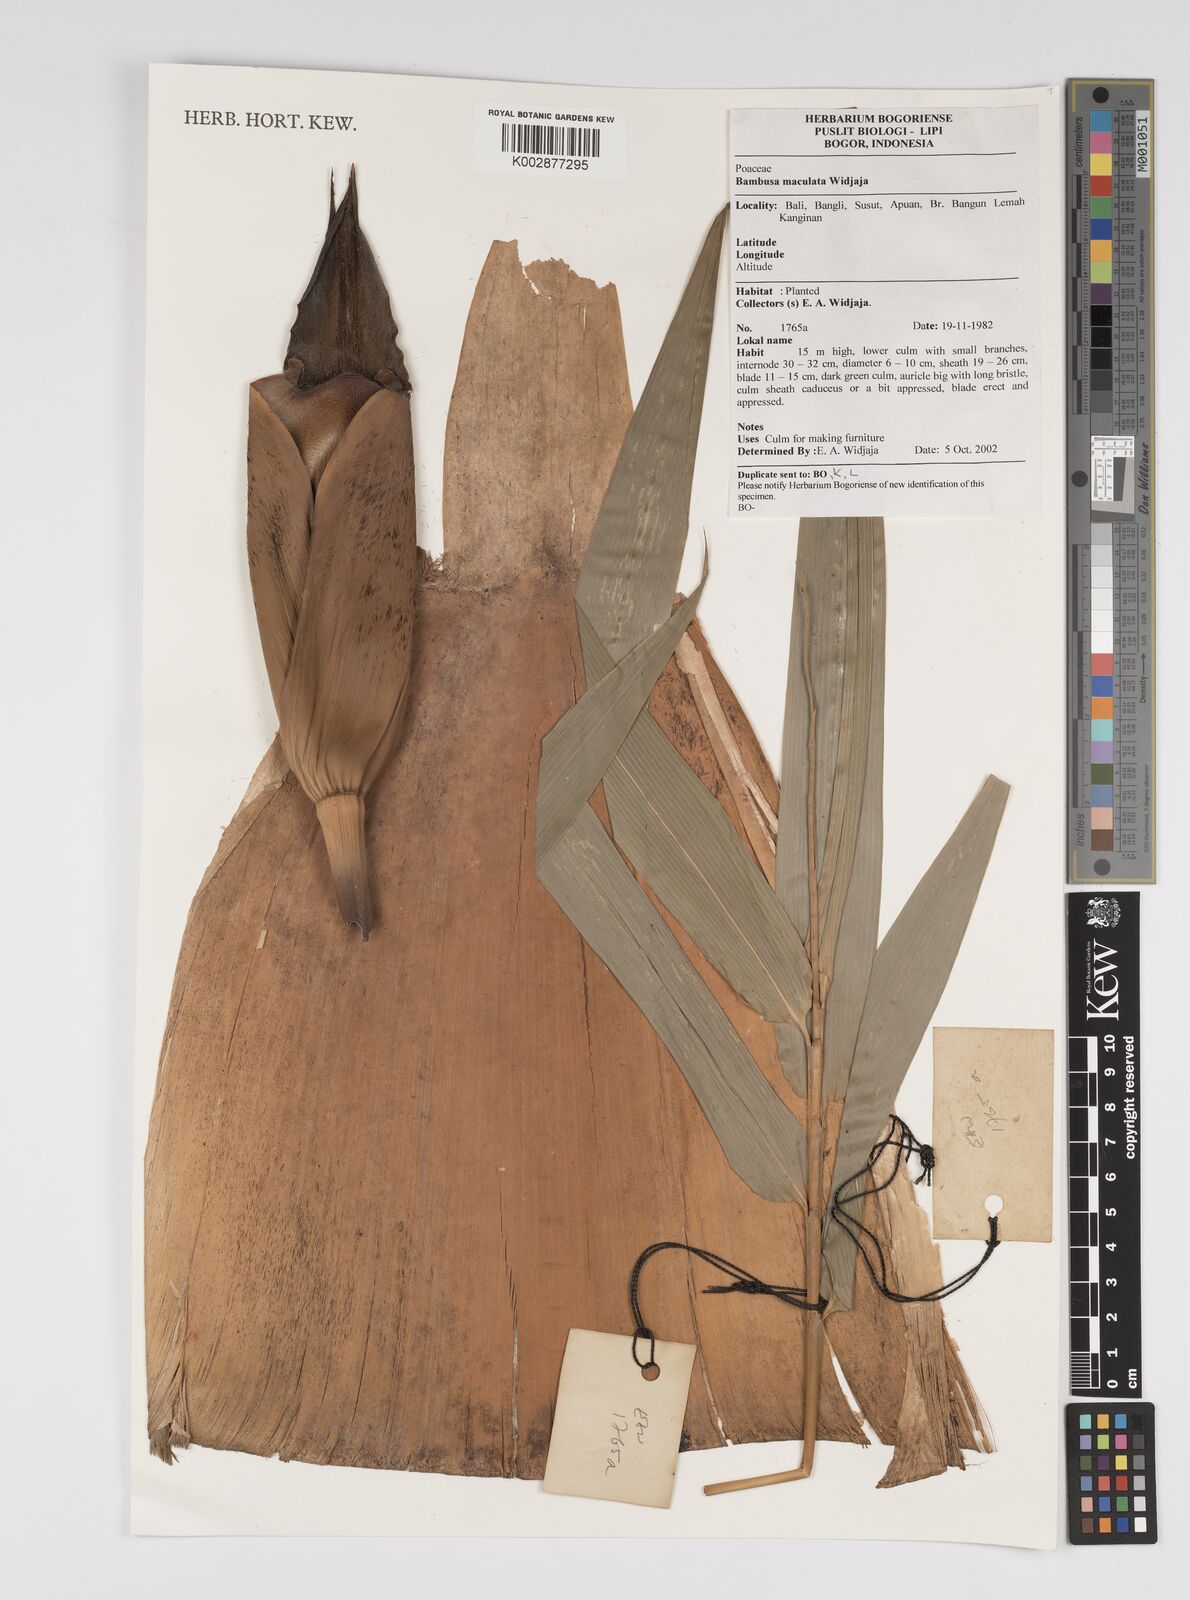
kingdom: Plantae
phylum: Tracheophyta
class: Liliopsida
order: Poales
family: Poaceae
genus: Bambusa
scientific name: Bambusa maculata
